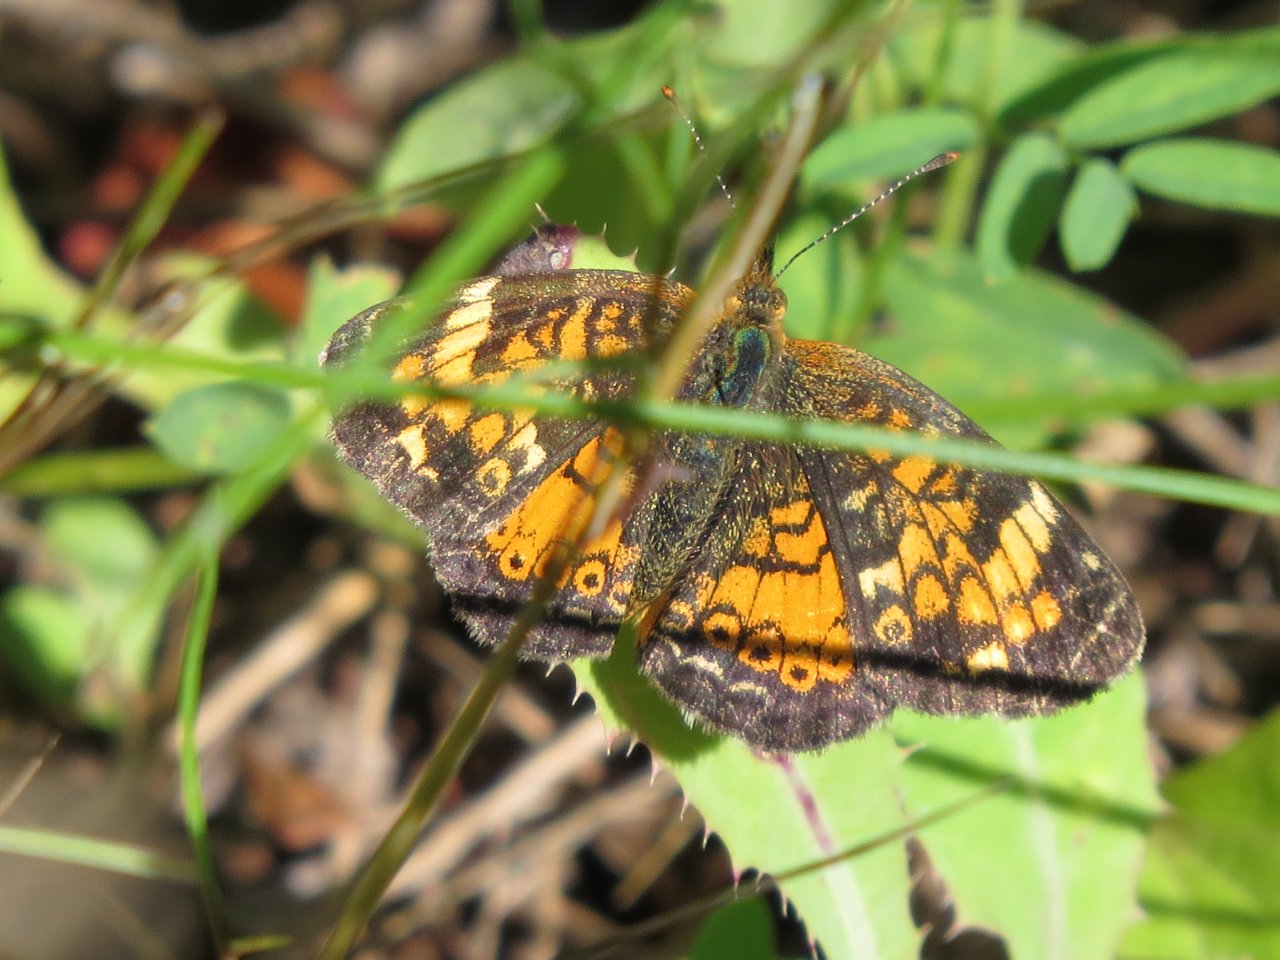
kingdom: Animalia
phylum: Arthropoda
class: Insecta
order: Lepidoptera
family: Nymphalidae
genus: Phyciodes
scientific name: Phyciodes tharos
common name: Northern Crescent
